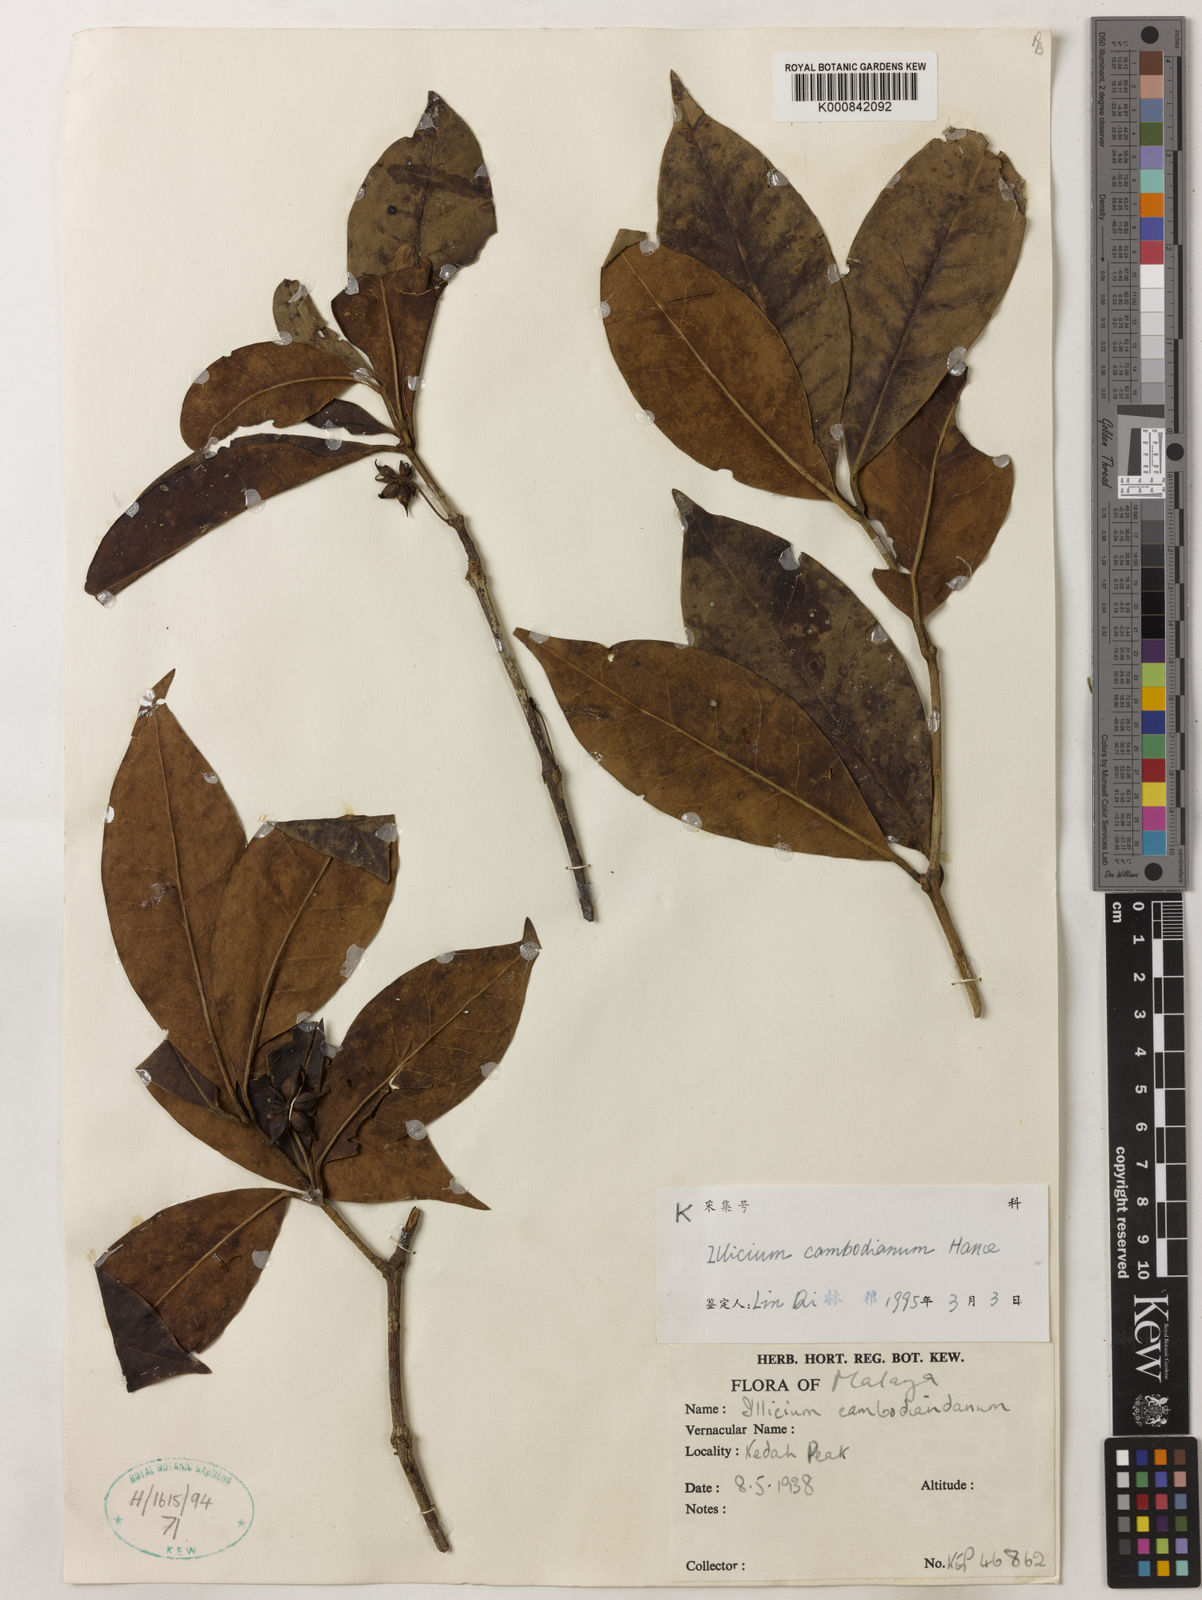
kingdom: Plantae
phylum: Tracheophyta
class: Magnoliopsida
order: Austrobaileyales
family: Schisandraceae
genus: Illicium
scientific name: Illicium griffithii
